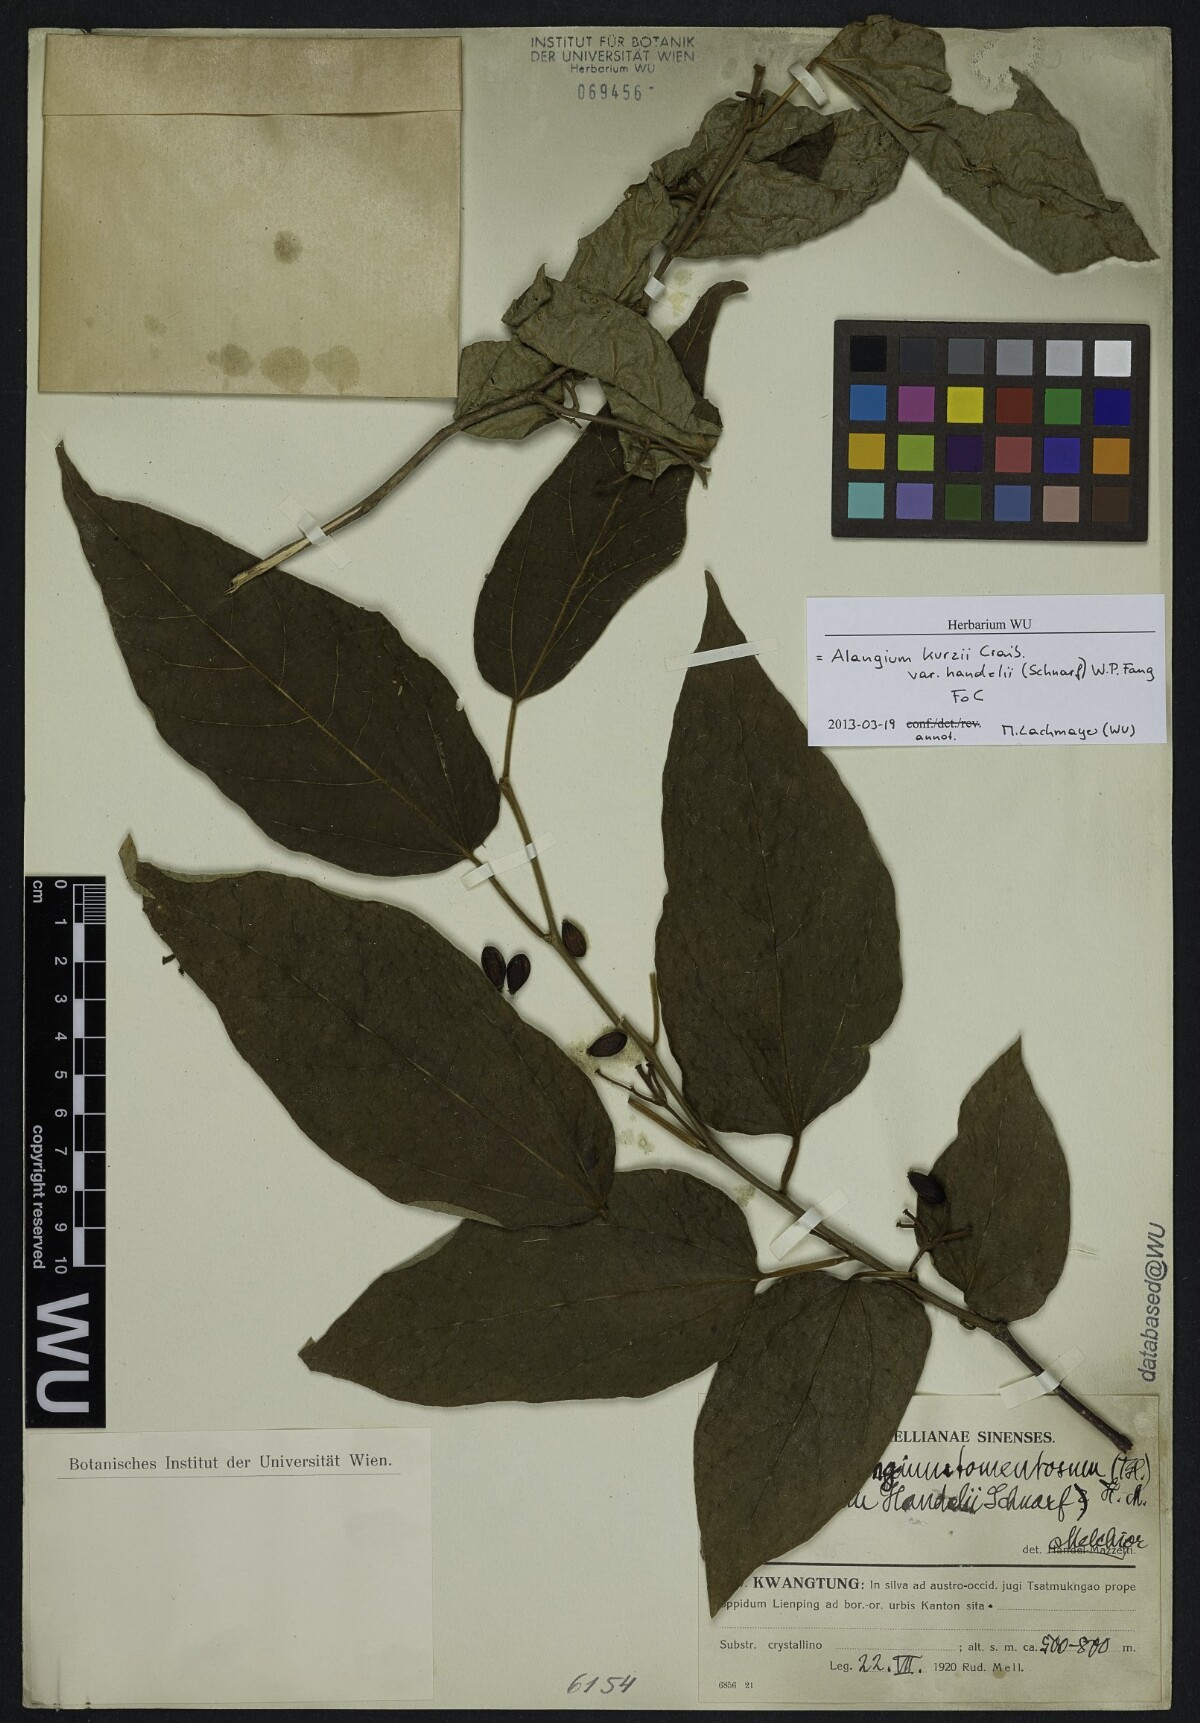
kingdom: Plantae
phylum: Tracheophyta
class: Magnoliopsida
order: Cornales
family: Cornaceae
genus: Alangium
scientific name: Alangium kurzii
